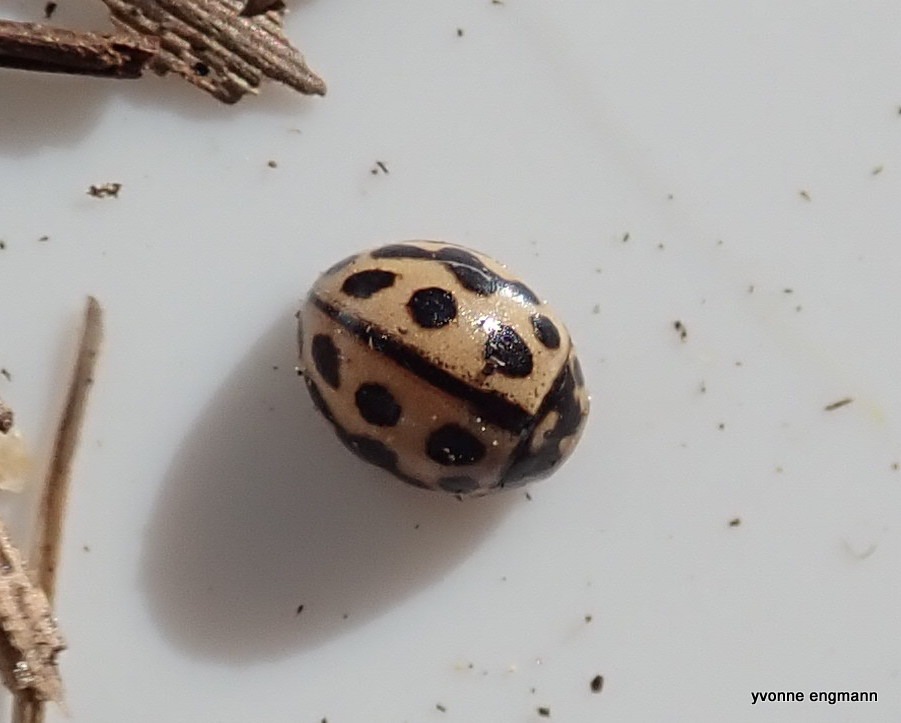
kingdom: Animalia
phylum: Arthropoda
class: Insecta
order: Coleoptera
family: Coccinellidae
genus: Tytthaspis
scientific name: Tytthaspis sedecimpunctata
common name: Sekstenprikket mariehøne
